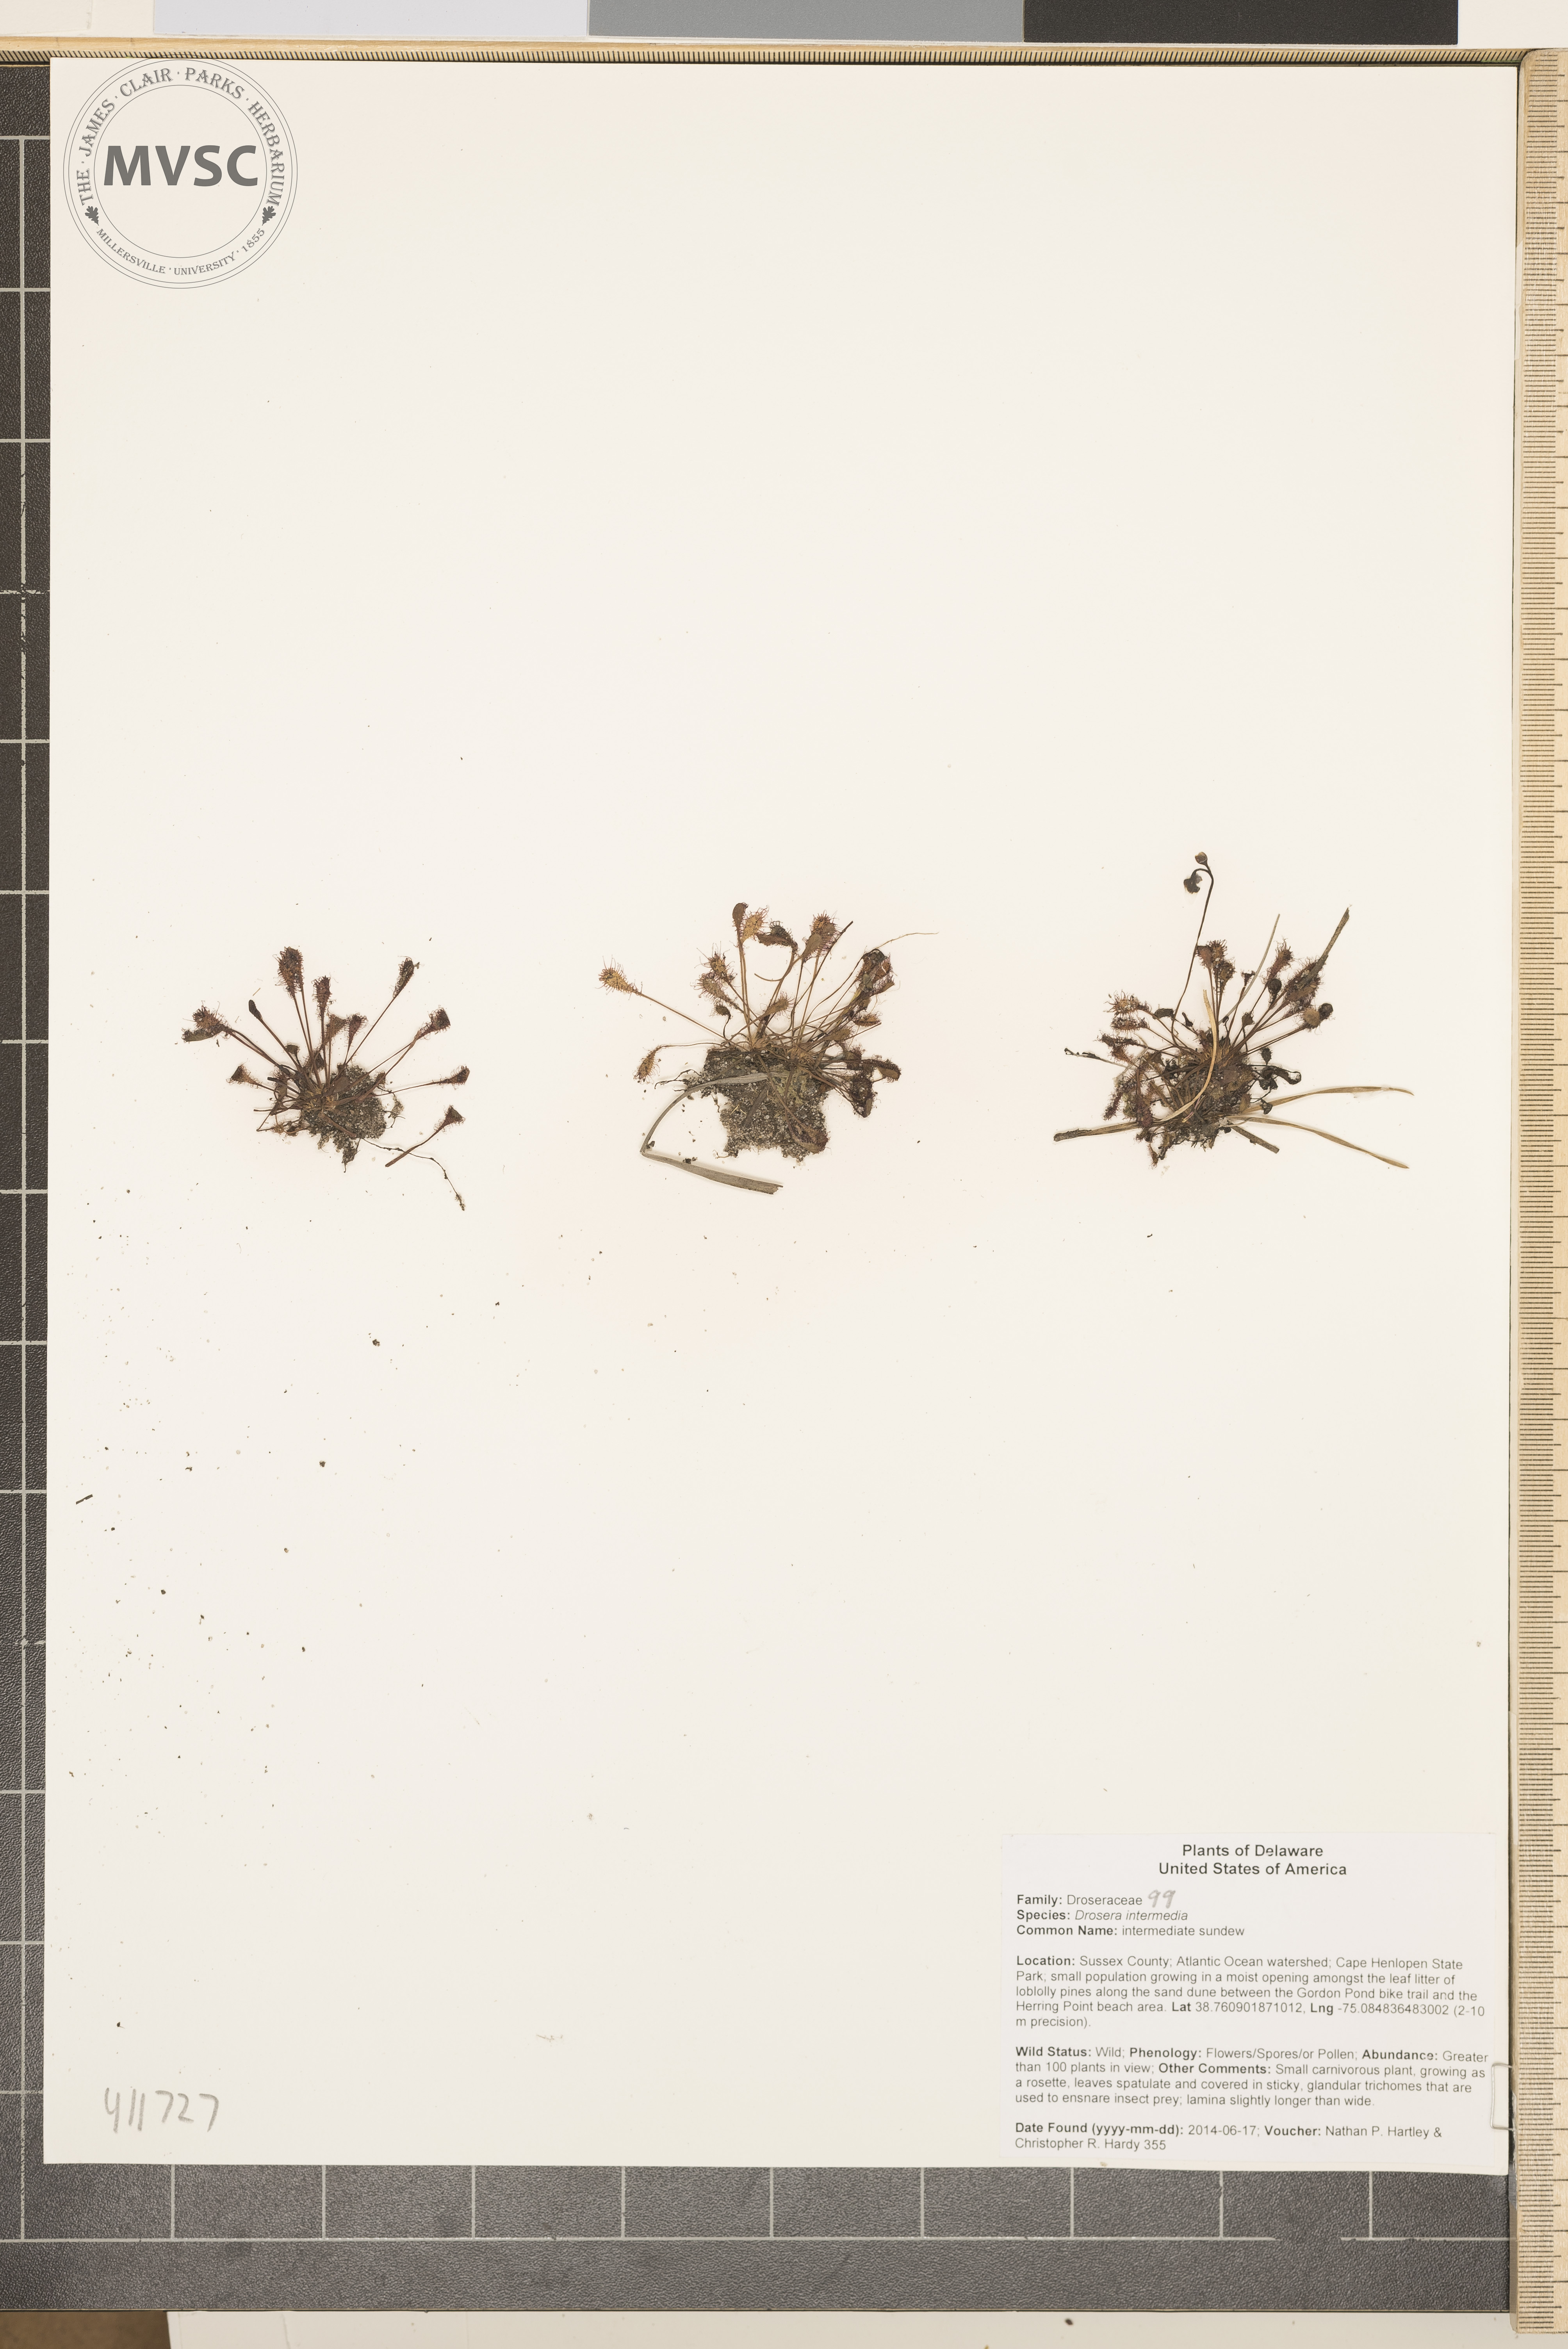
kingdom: Plantae
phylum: Tracheophyta
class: Magnoliopsida
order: Caryophyllales
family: Droseraceae
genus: Drosera
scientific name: Drosera intermedia
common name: sundew
